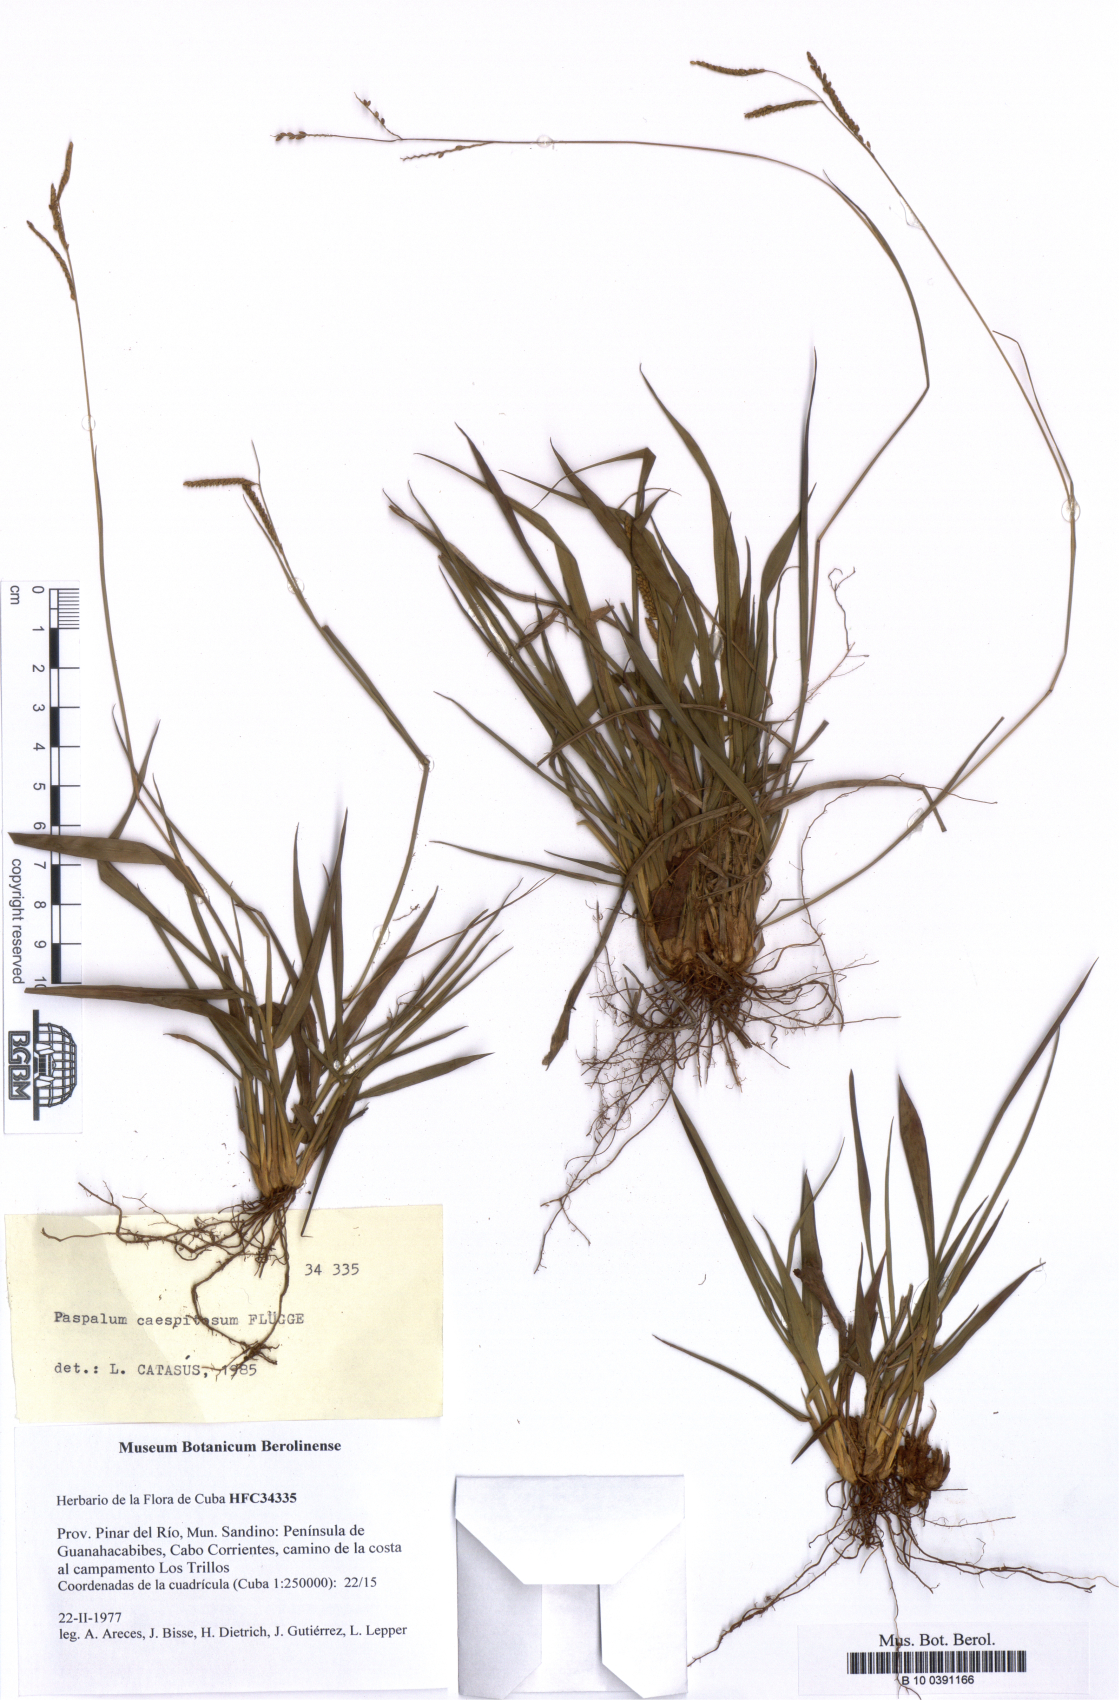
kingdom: Plantae
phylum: Tracheophyta
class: Liliopsida
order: Poales
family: Poaceae
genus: Paspalum
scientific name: Paspalum caespitosum
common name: Blue crowngrass
